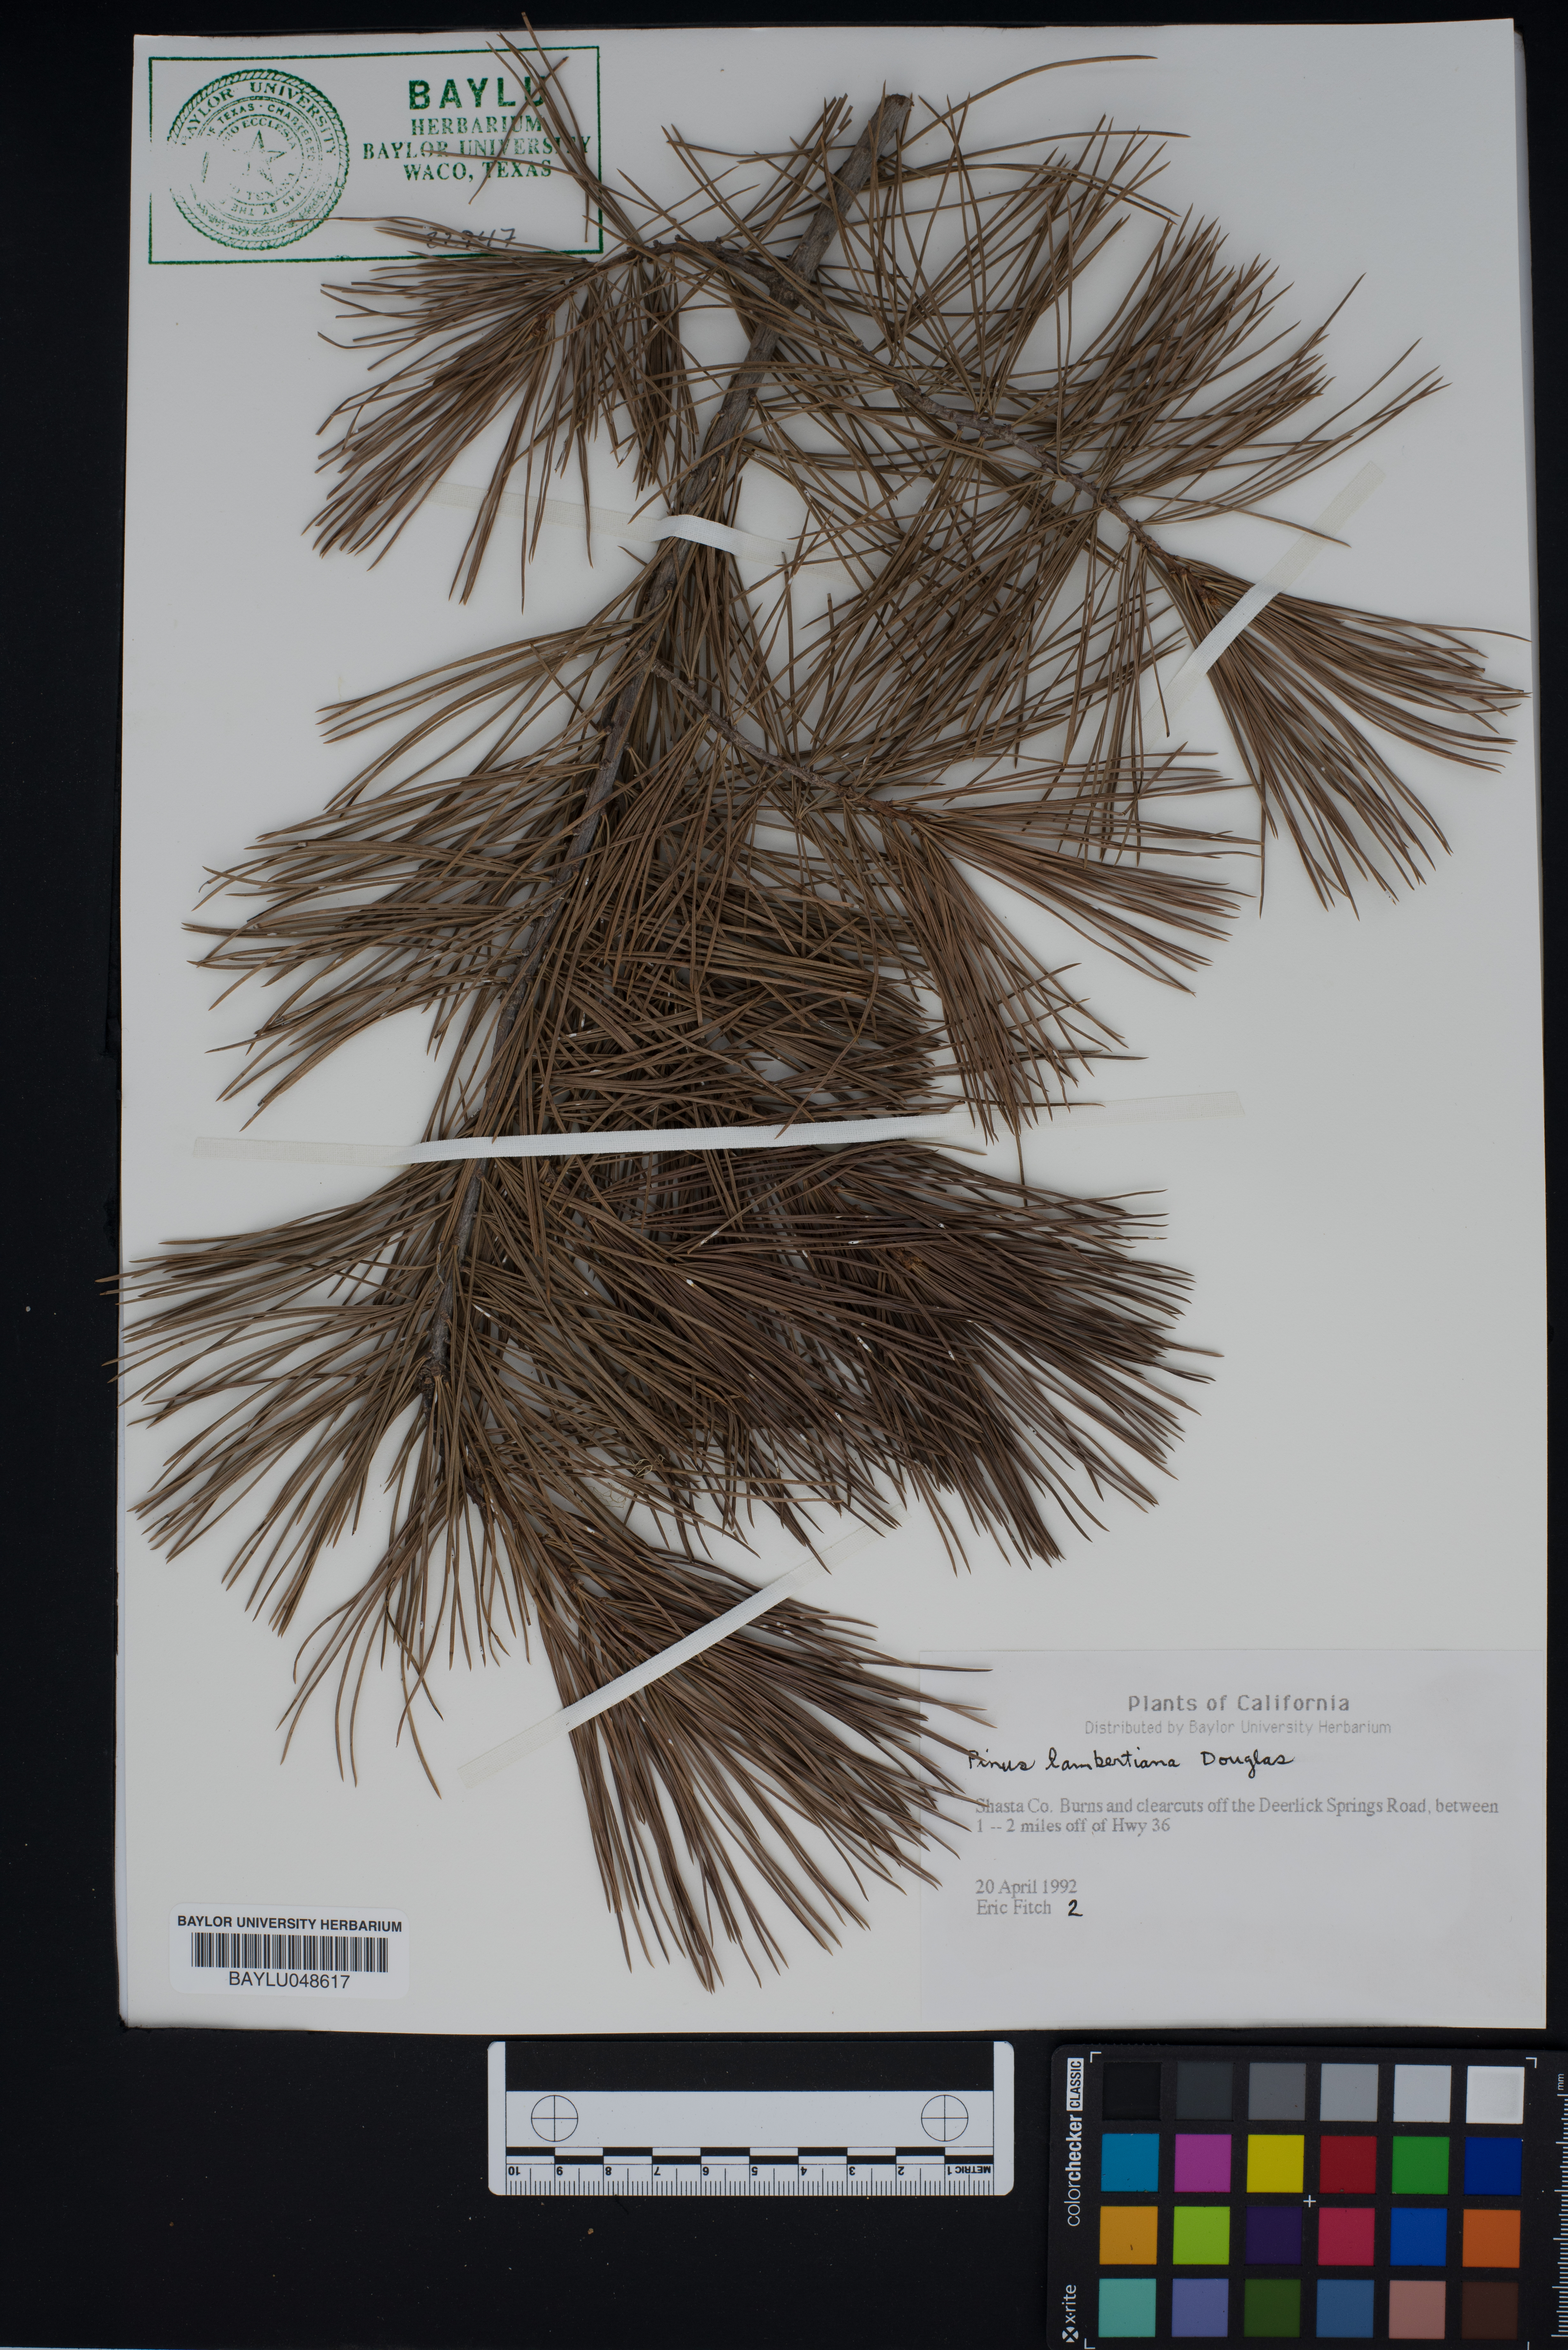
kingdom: Plantae
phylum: Tracheophyta
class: Pinopsida
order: Pinales
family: Pinaceae
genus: Pinus
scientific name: Pinus lambertiana
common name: Sugar pine
